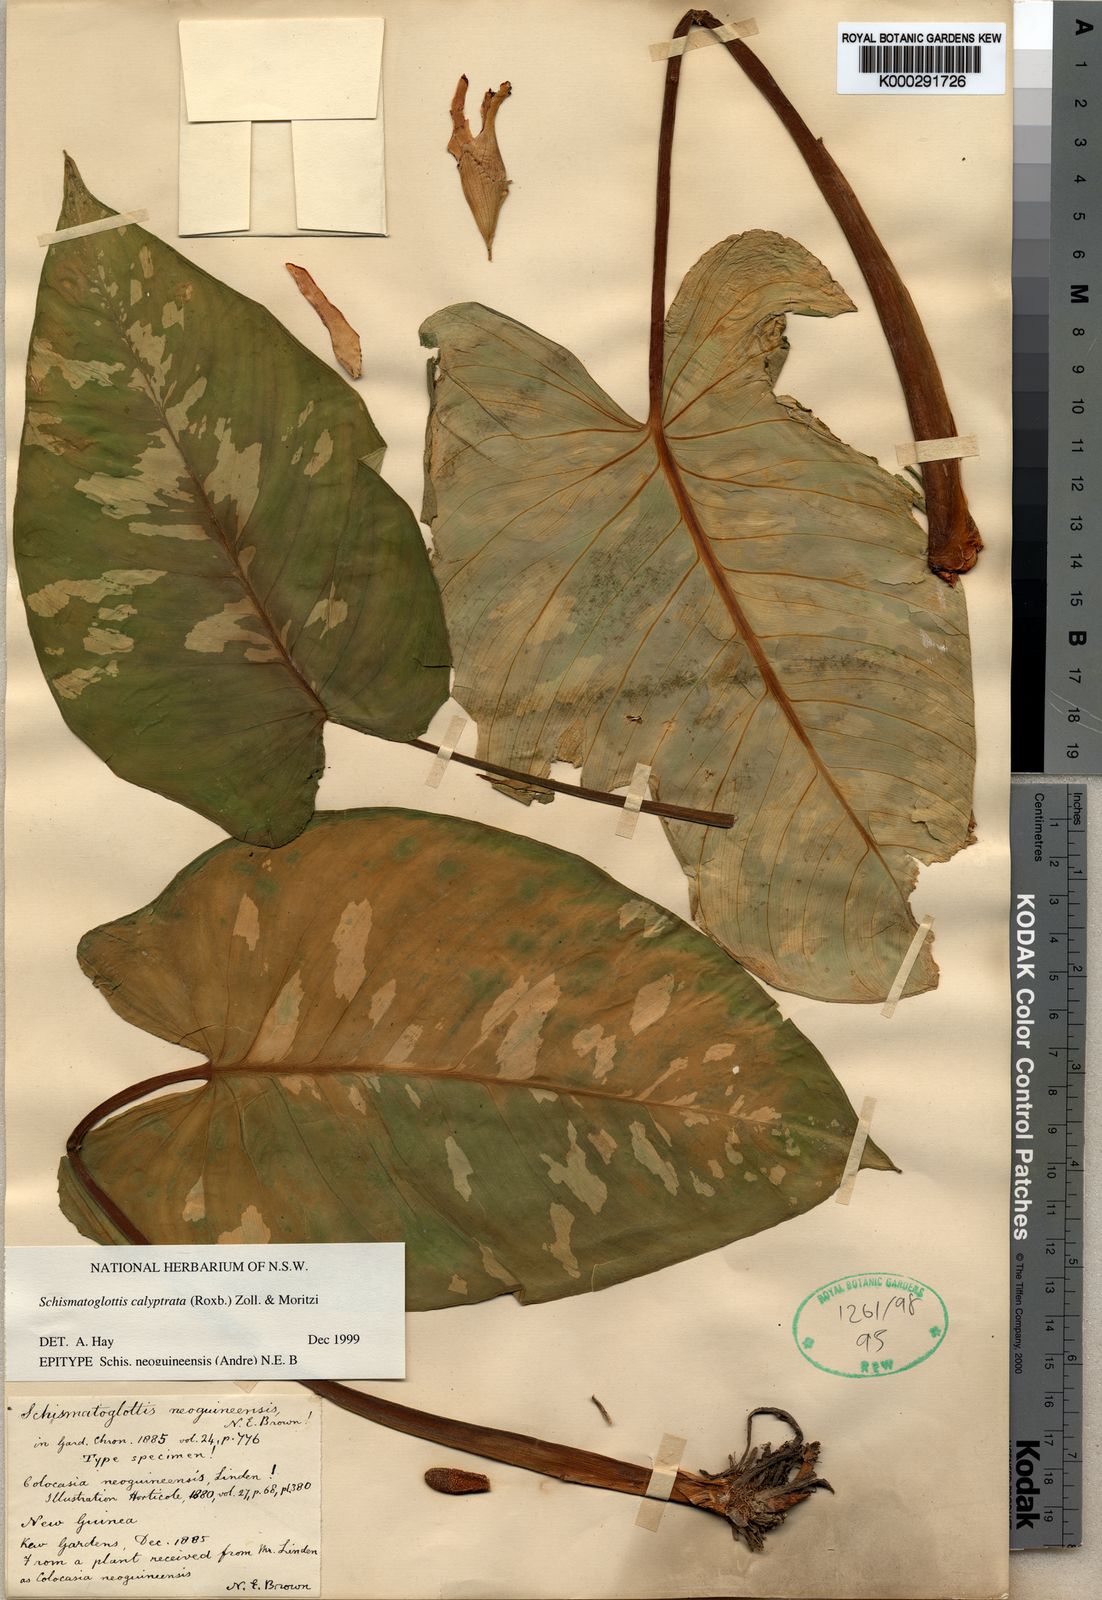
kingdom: Plantae
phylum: Tracheophyta
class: Liliopsida
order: Alismatales
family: Araceae
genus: Schismatoglottis
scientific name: Schismatoglottis calyptrata
